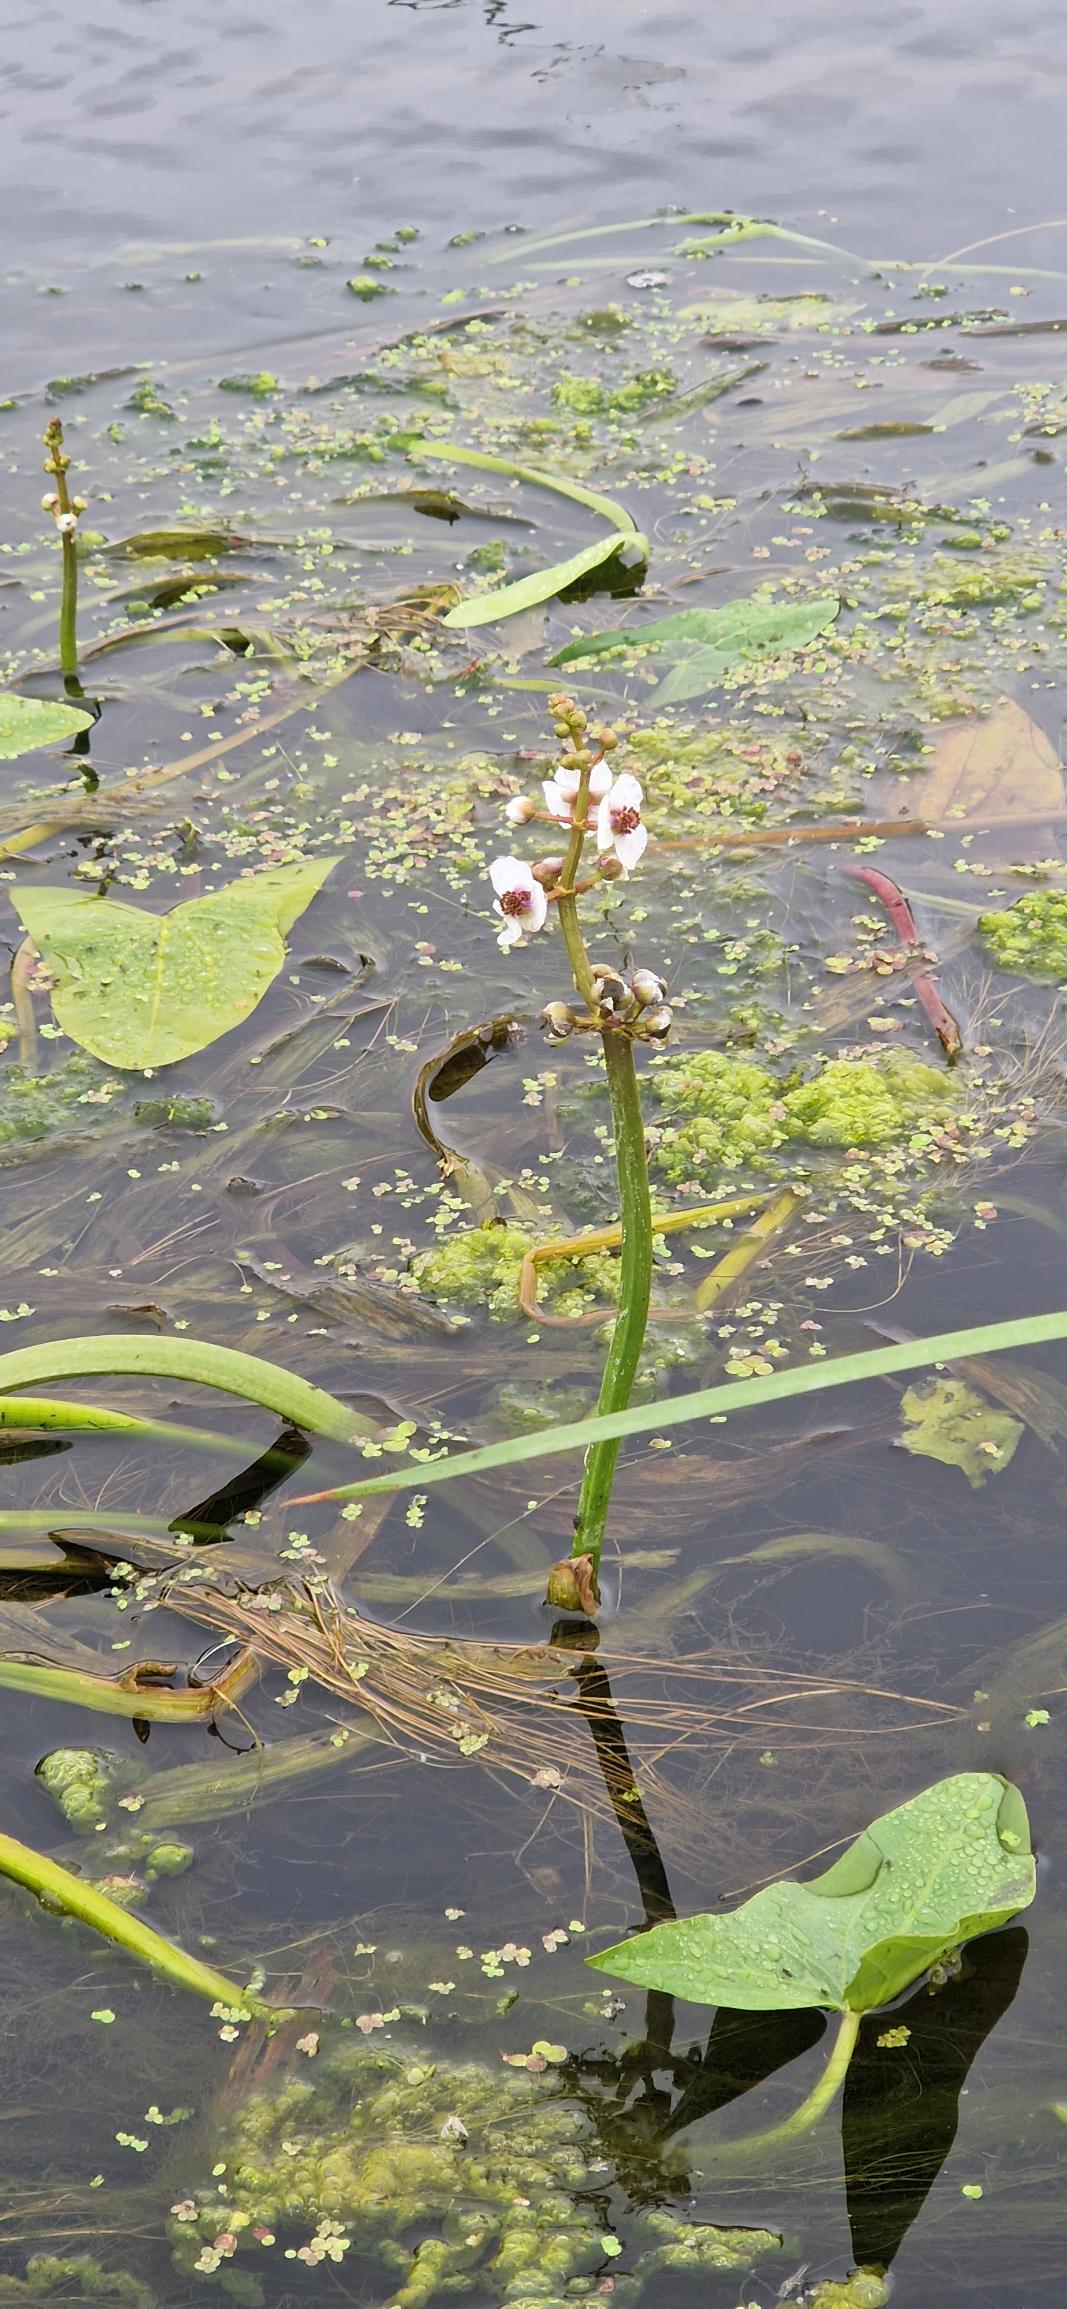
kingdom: Plantae
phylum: Tracheophyta
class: Liliopsida
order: Alismatales
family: Alismataceae
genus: Sagittaria
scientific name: Sagittaria sagittifolia
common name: Pilblad
